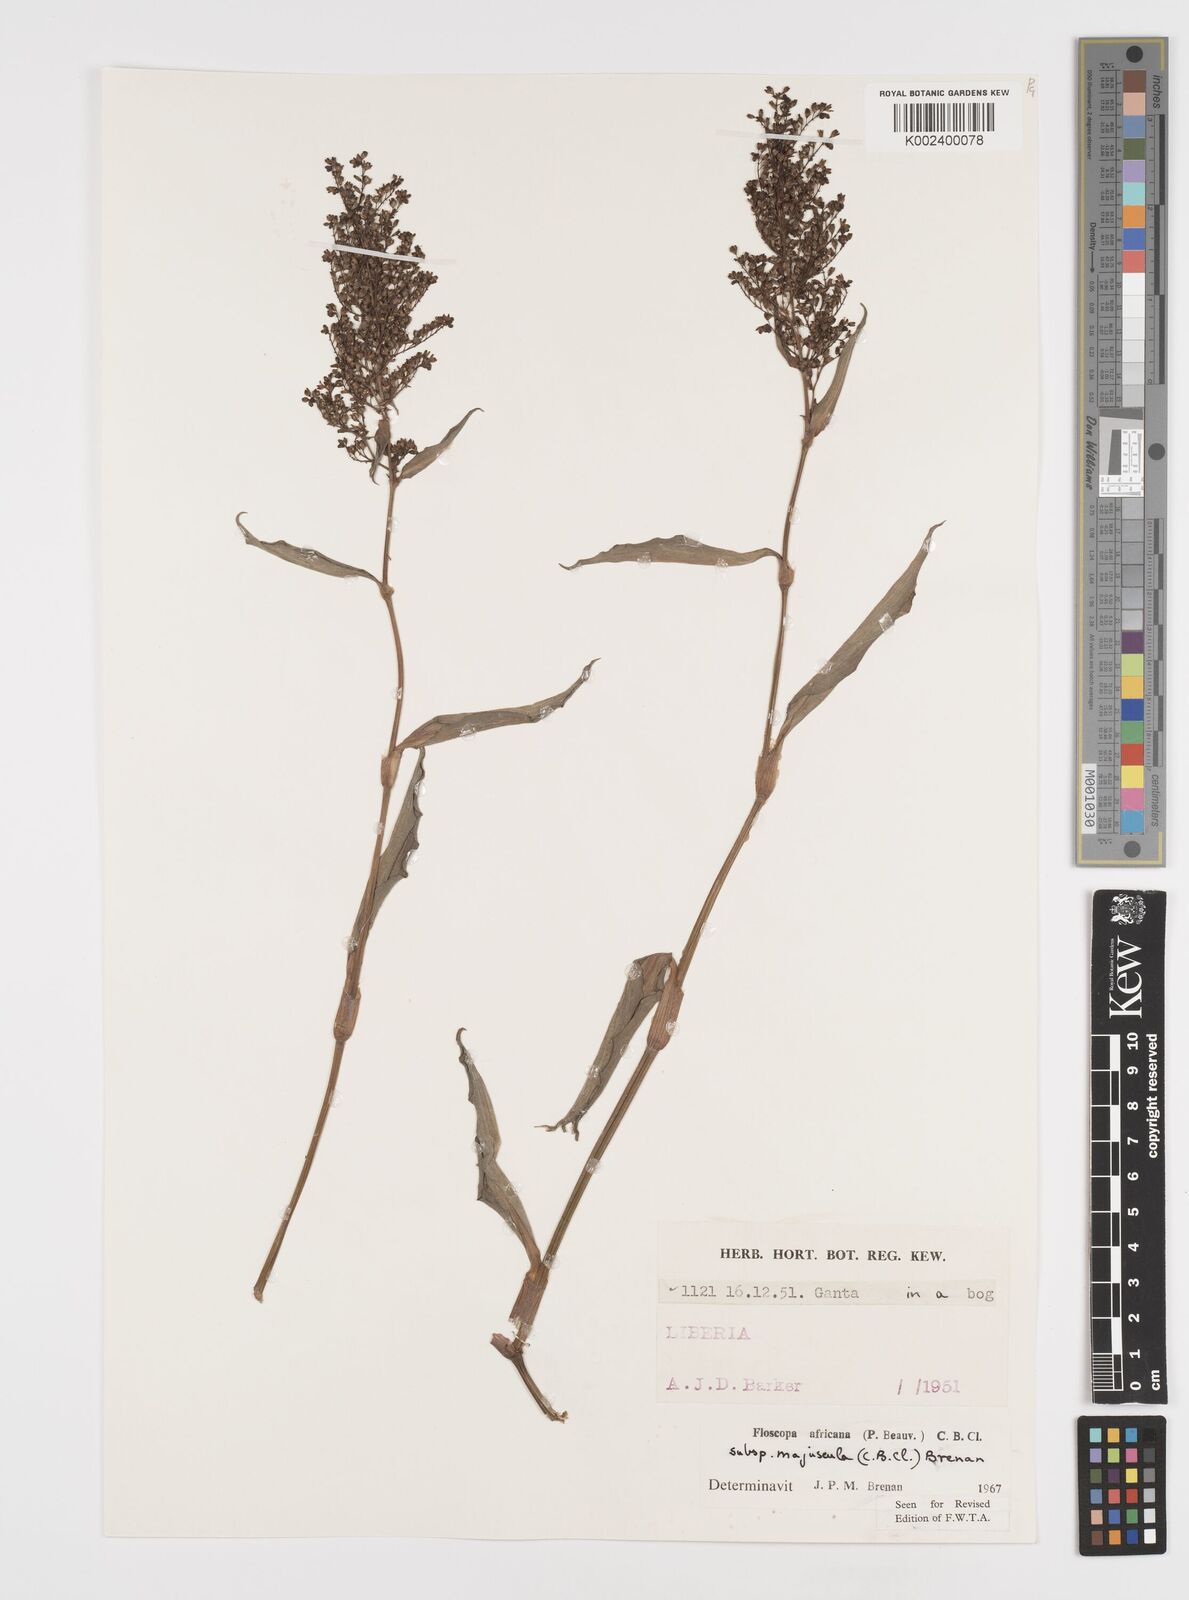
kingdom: Plantae
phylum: Tracheophyta
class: Liliopsida
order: Commelinales
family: Commelinaceae
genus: Floscopa
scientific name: Floscopa africana
